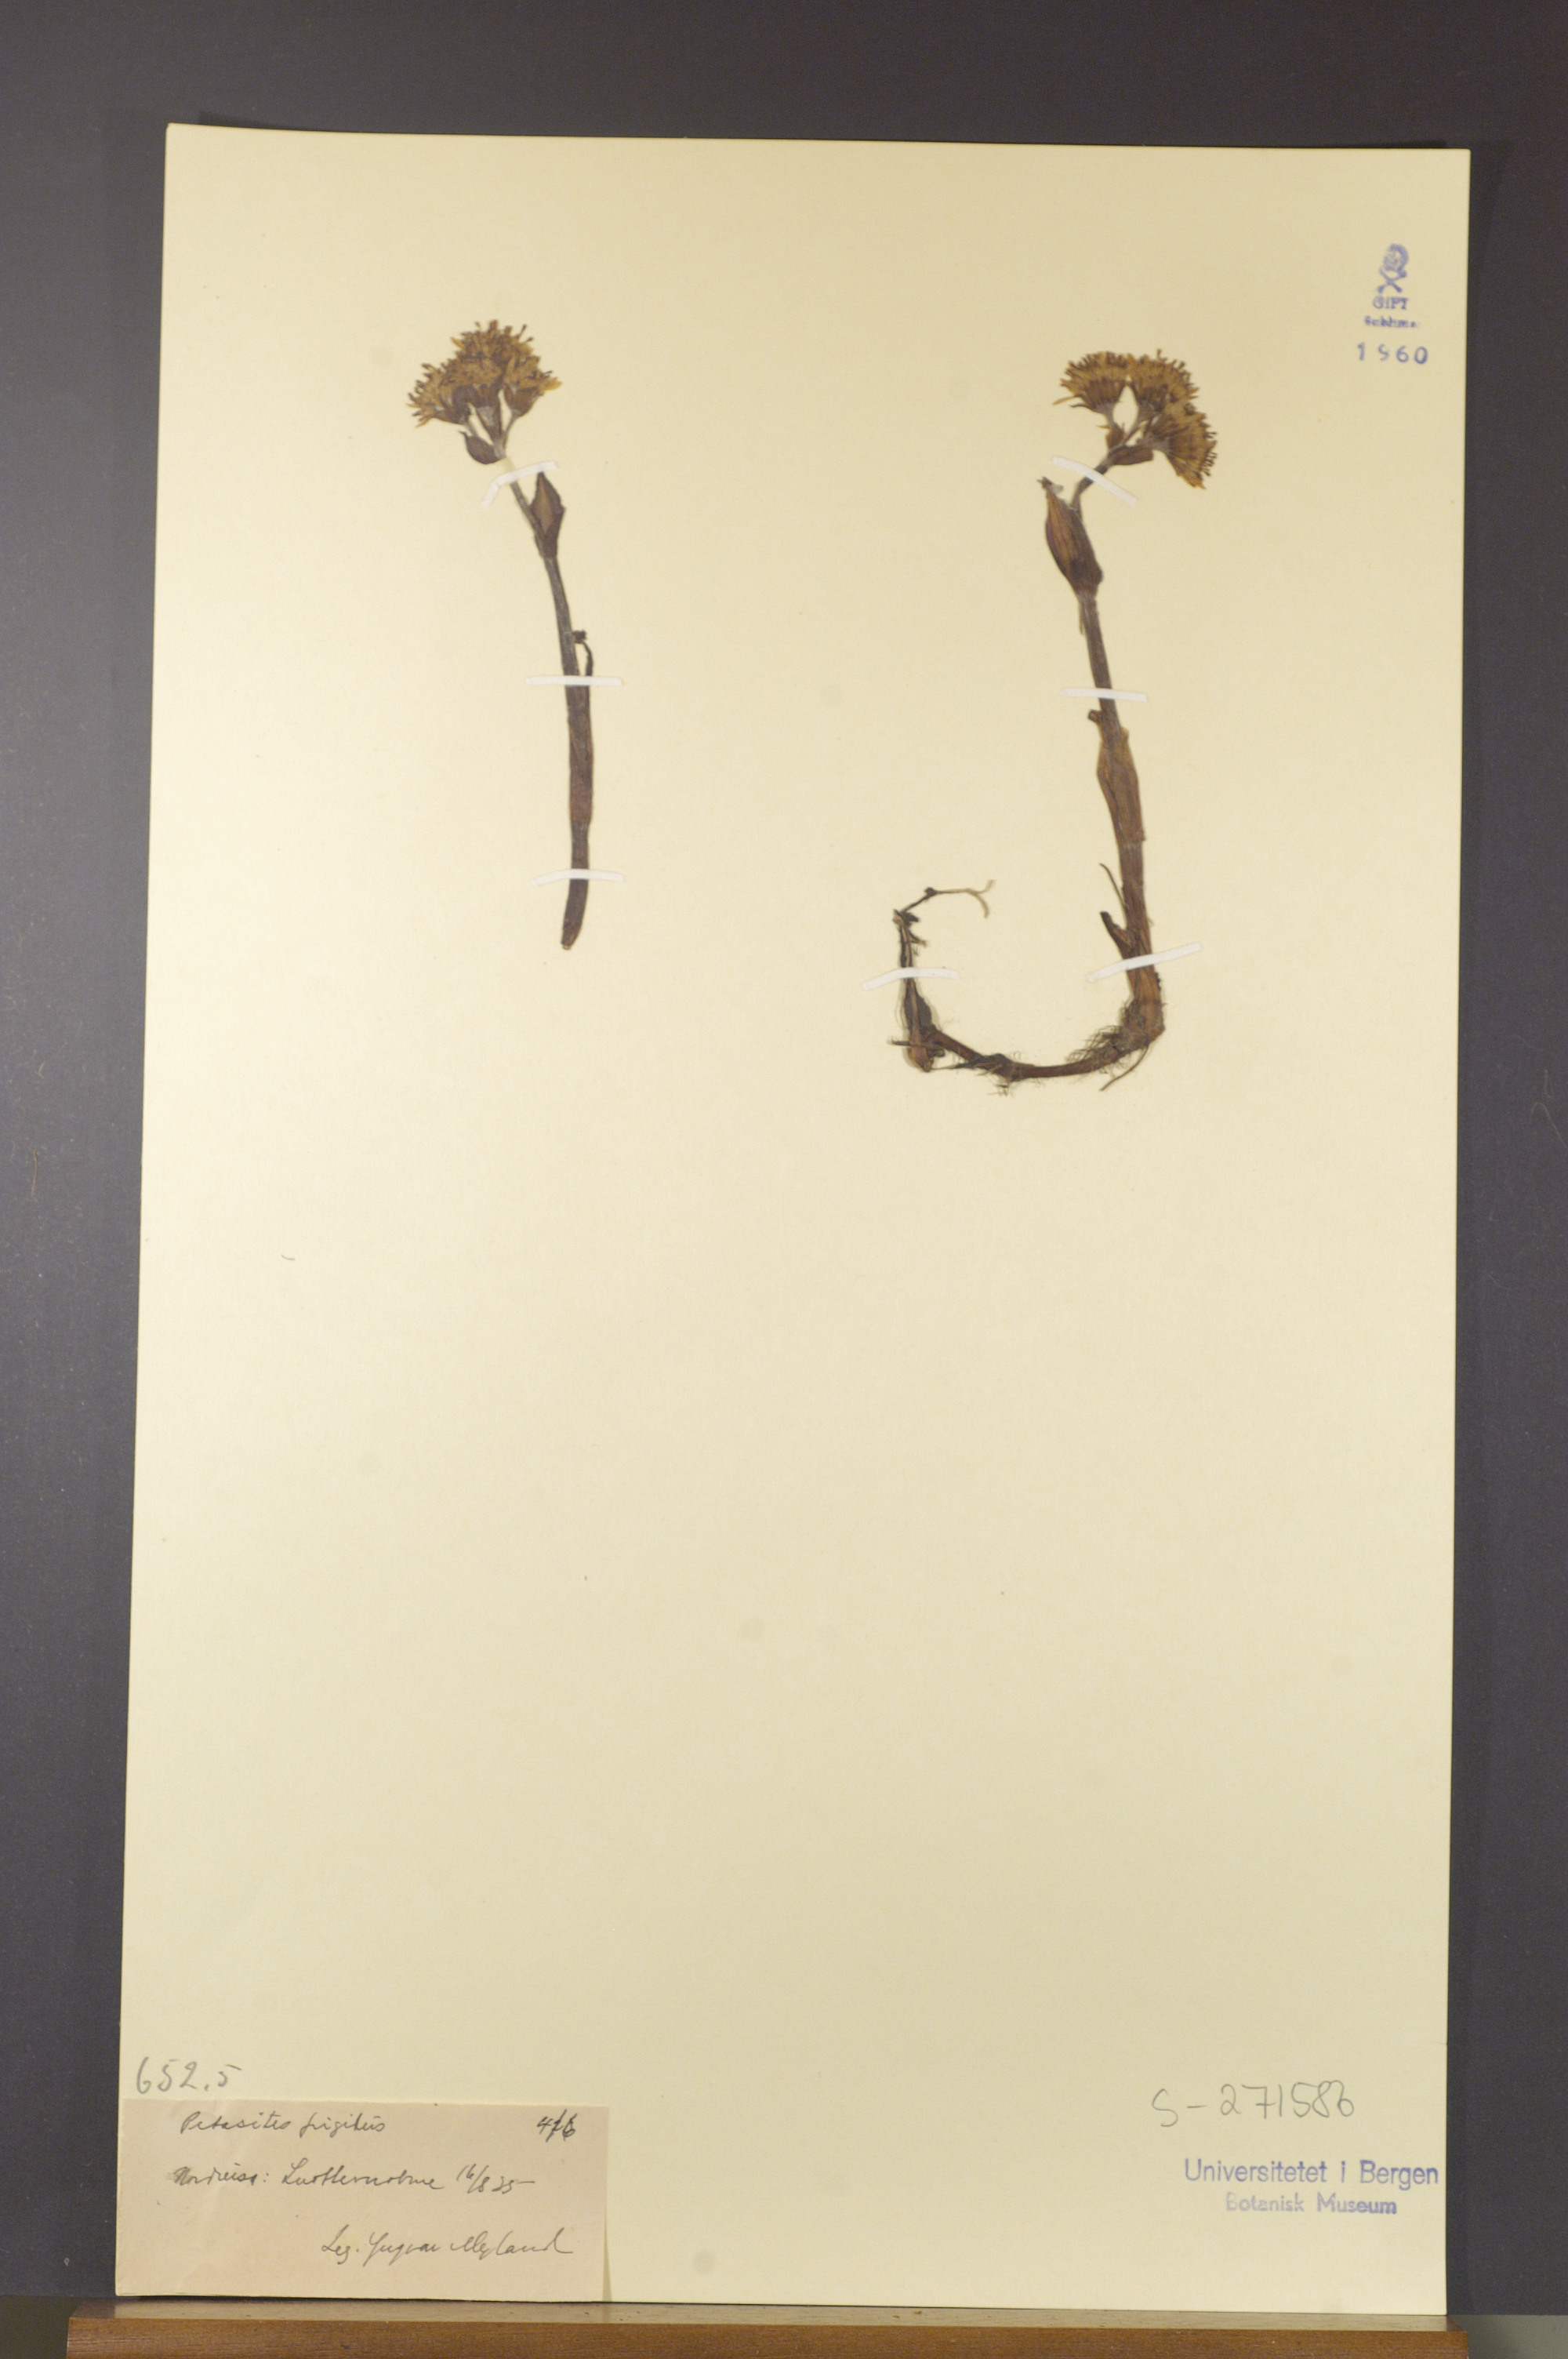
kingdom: Plantae
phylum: Tracheophyta
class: Magnoliopsida
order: Asterales
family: Asteraceae
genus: Petasites
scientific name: Petasites frigidus
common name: Arctic butterbur
